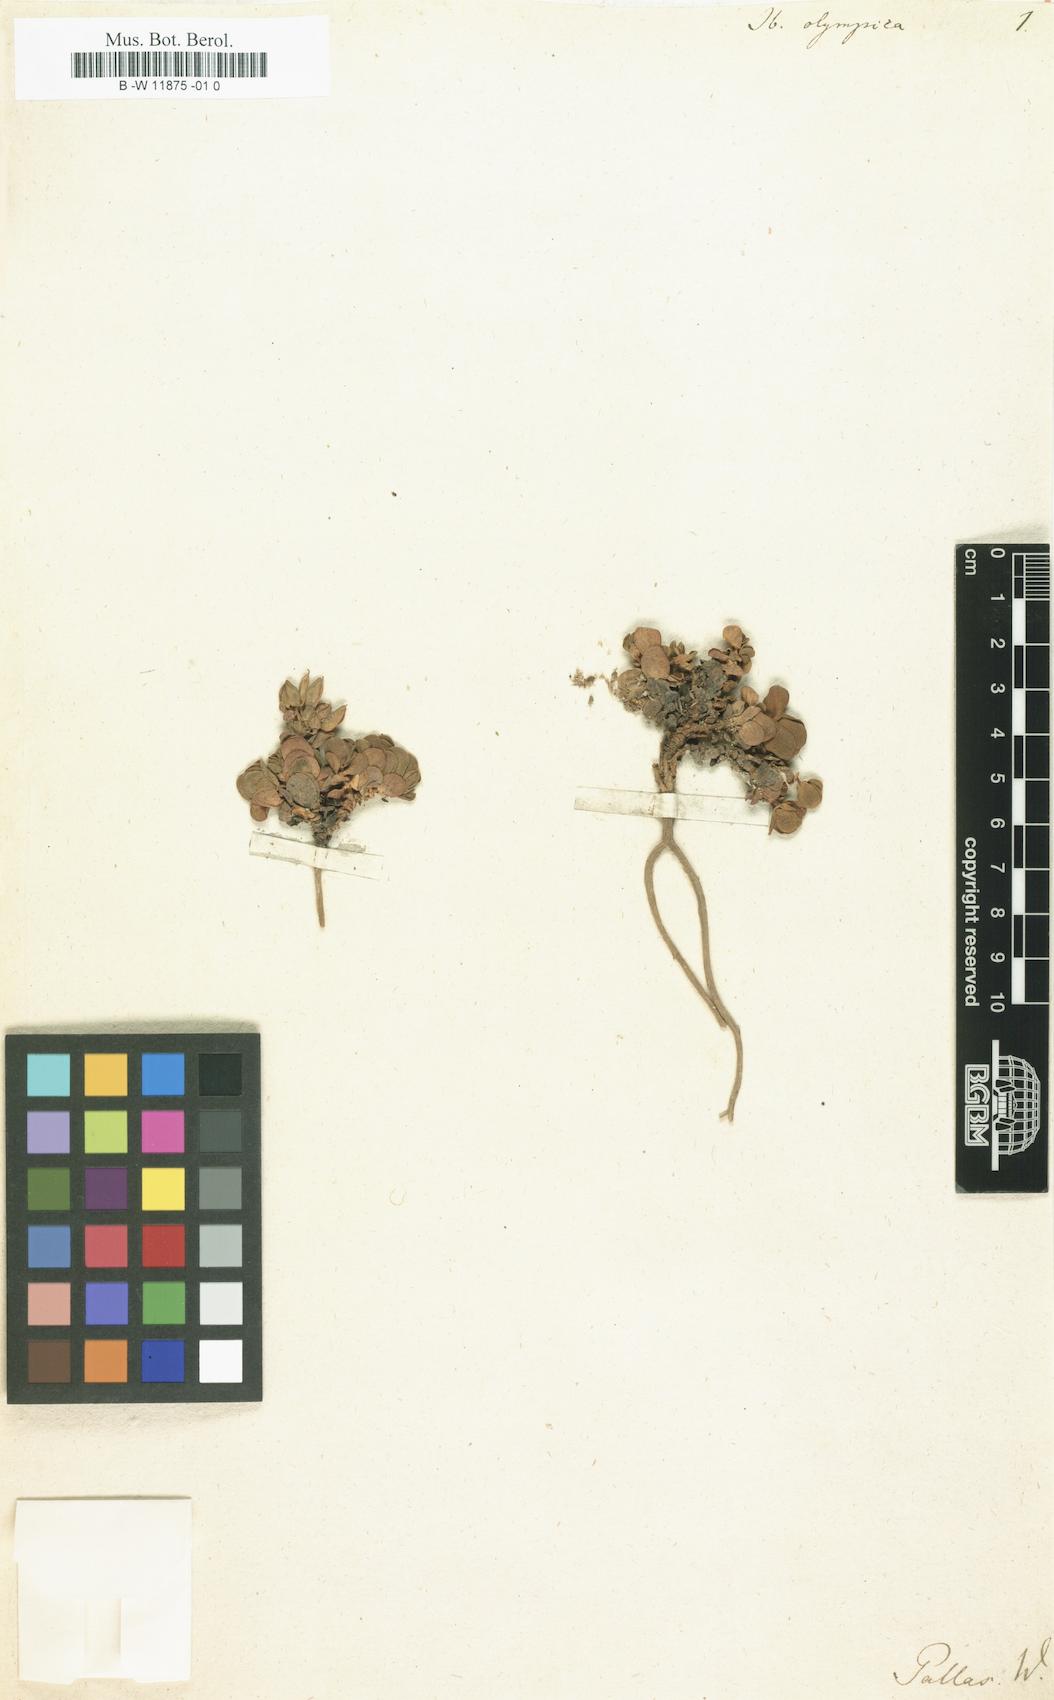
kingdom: Plantae
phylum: Tracheophyta
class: Magnoliopsida
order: Brassicales
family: Brassicaceae
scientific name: Brassicaceae
